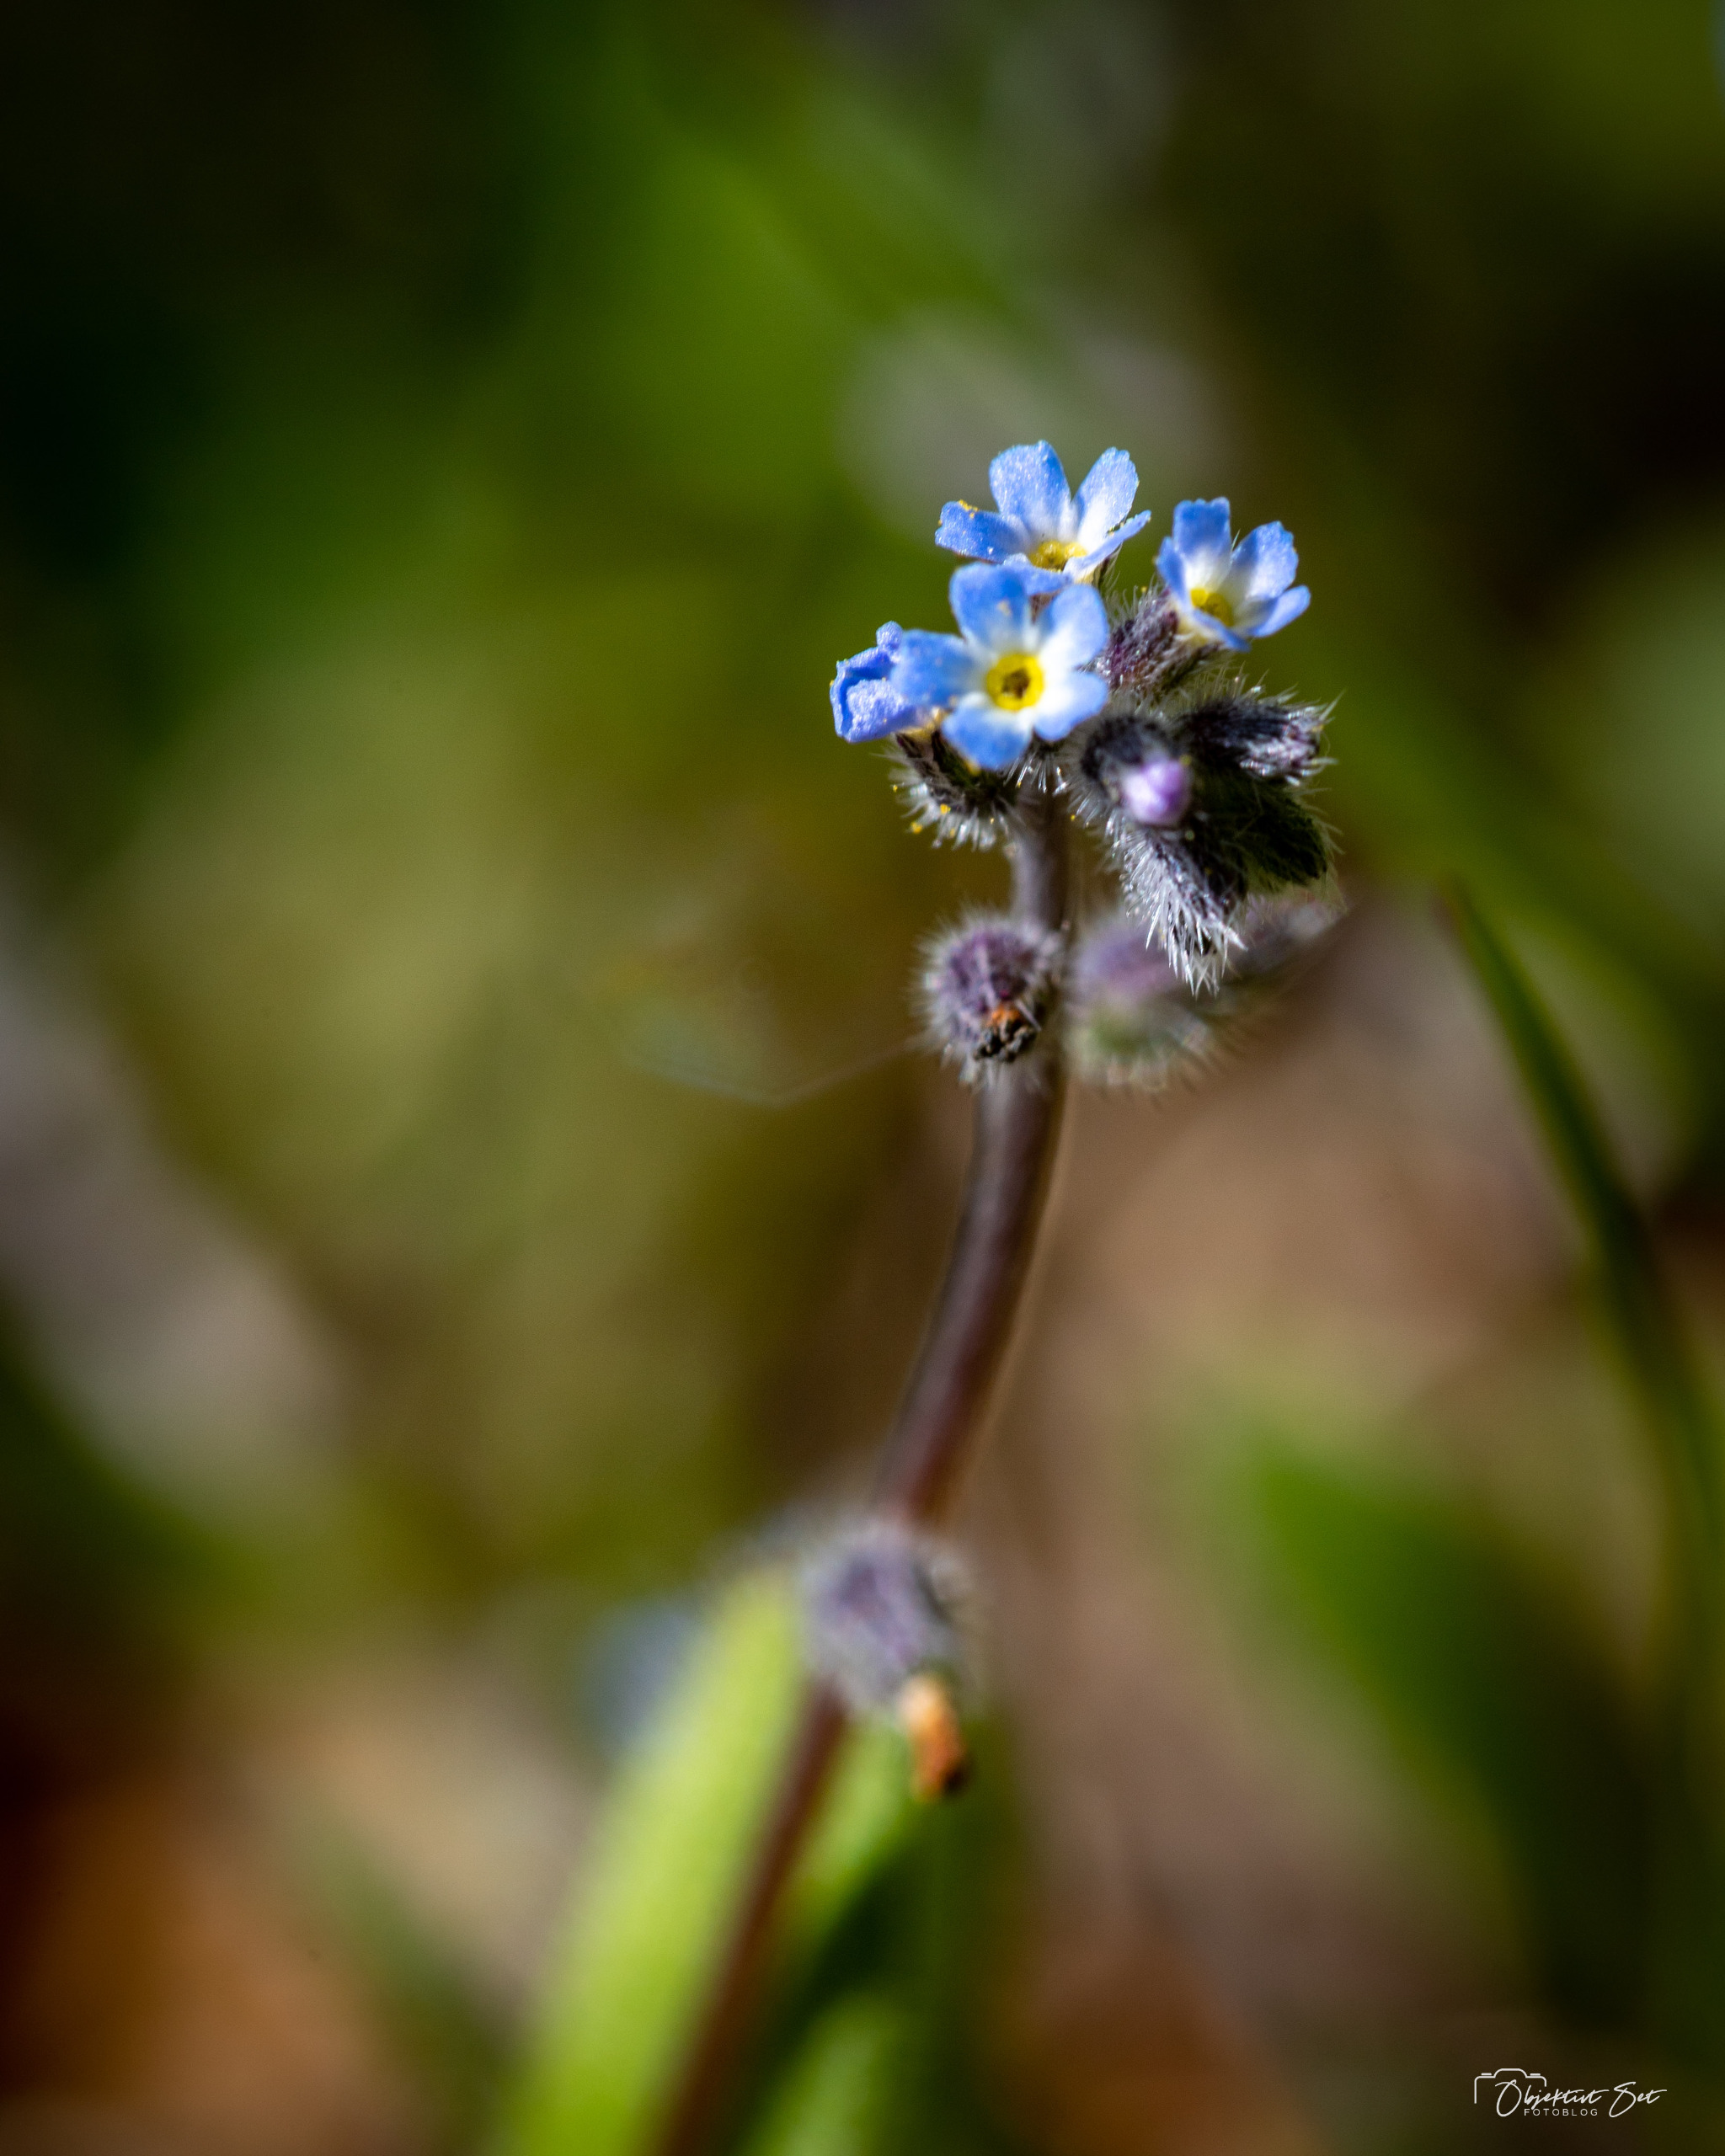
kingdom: Plantae
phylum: Tracheophyta
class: Magnoliopsida
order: Boraginales
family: Boraginaceae
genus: Myosotis
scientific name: Myosotis ramosissima
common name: Bakke-forglemmigej
